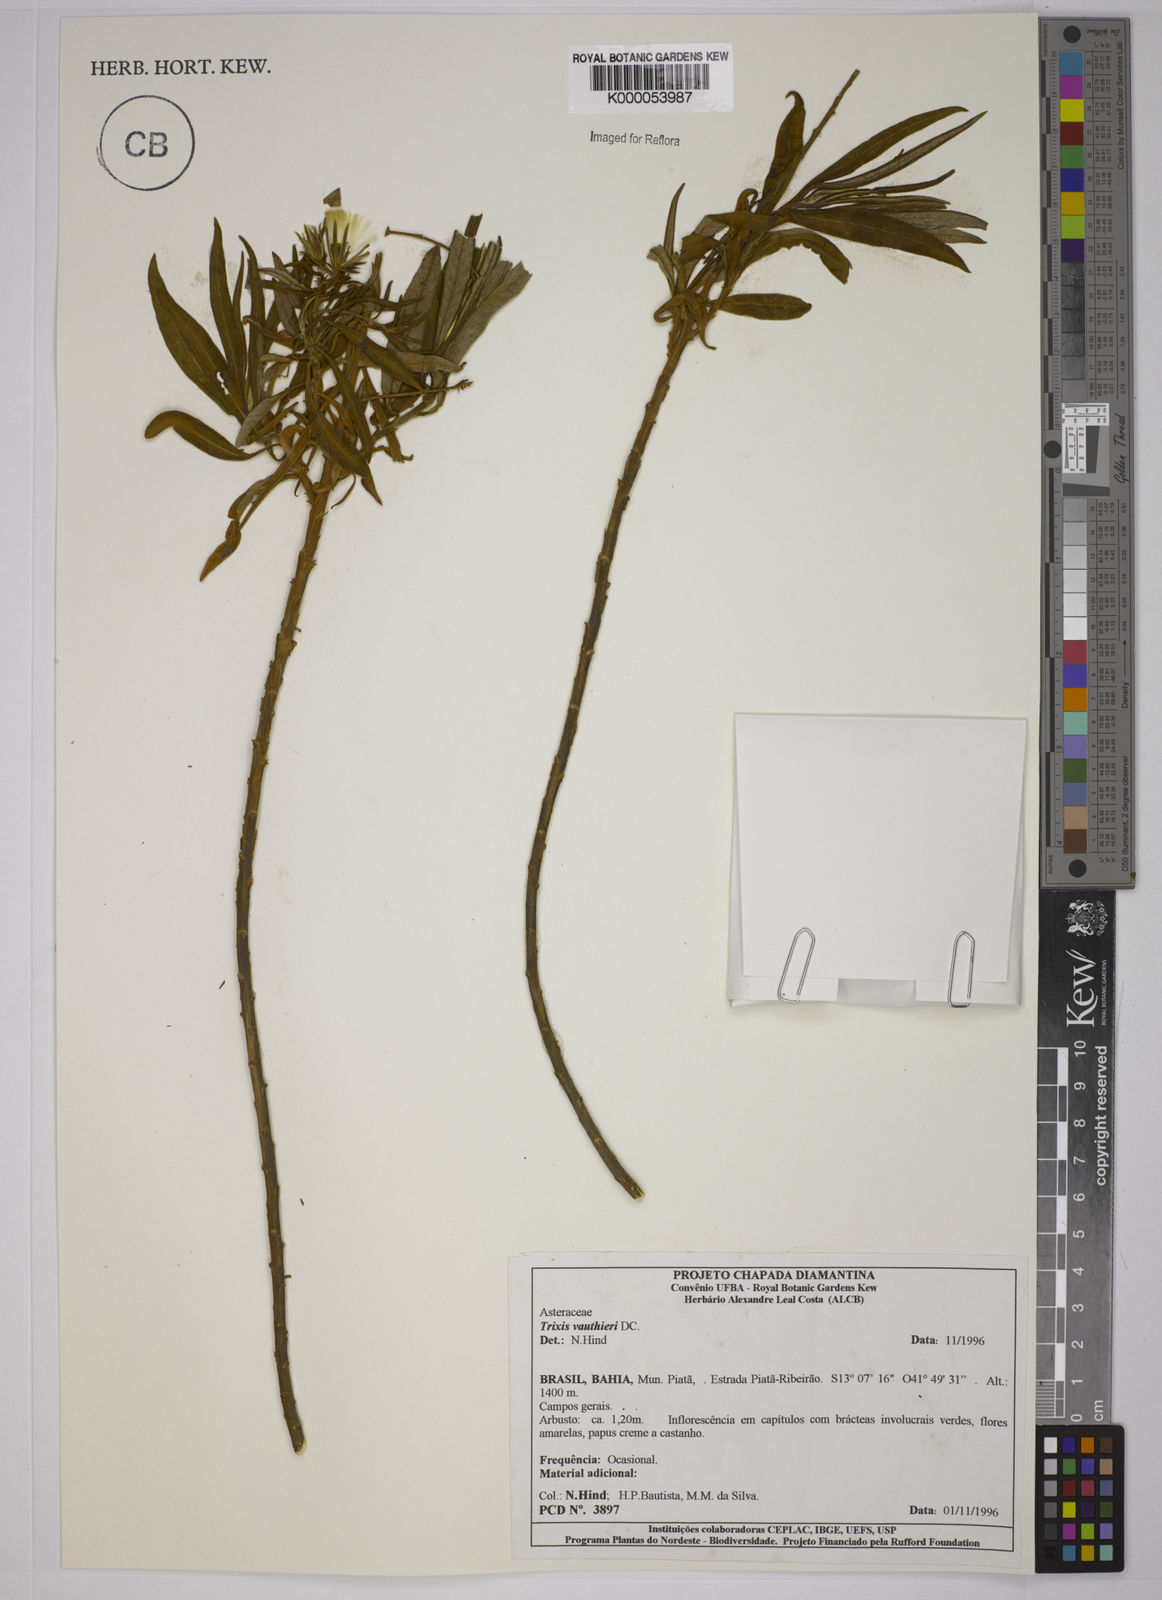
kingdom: Plantae
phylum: Tracheophyta
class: Magnoliopsida
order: Asterales
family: Asteraceae
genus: Trixis
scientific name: Trixis vauthieri
